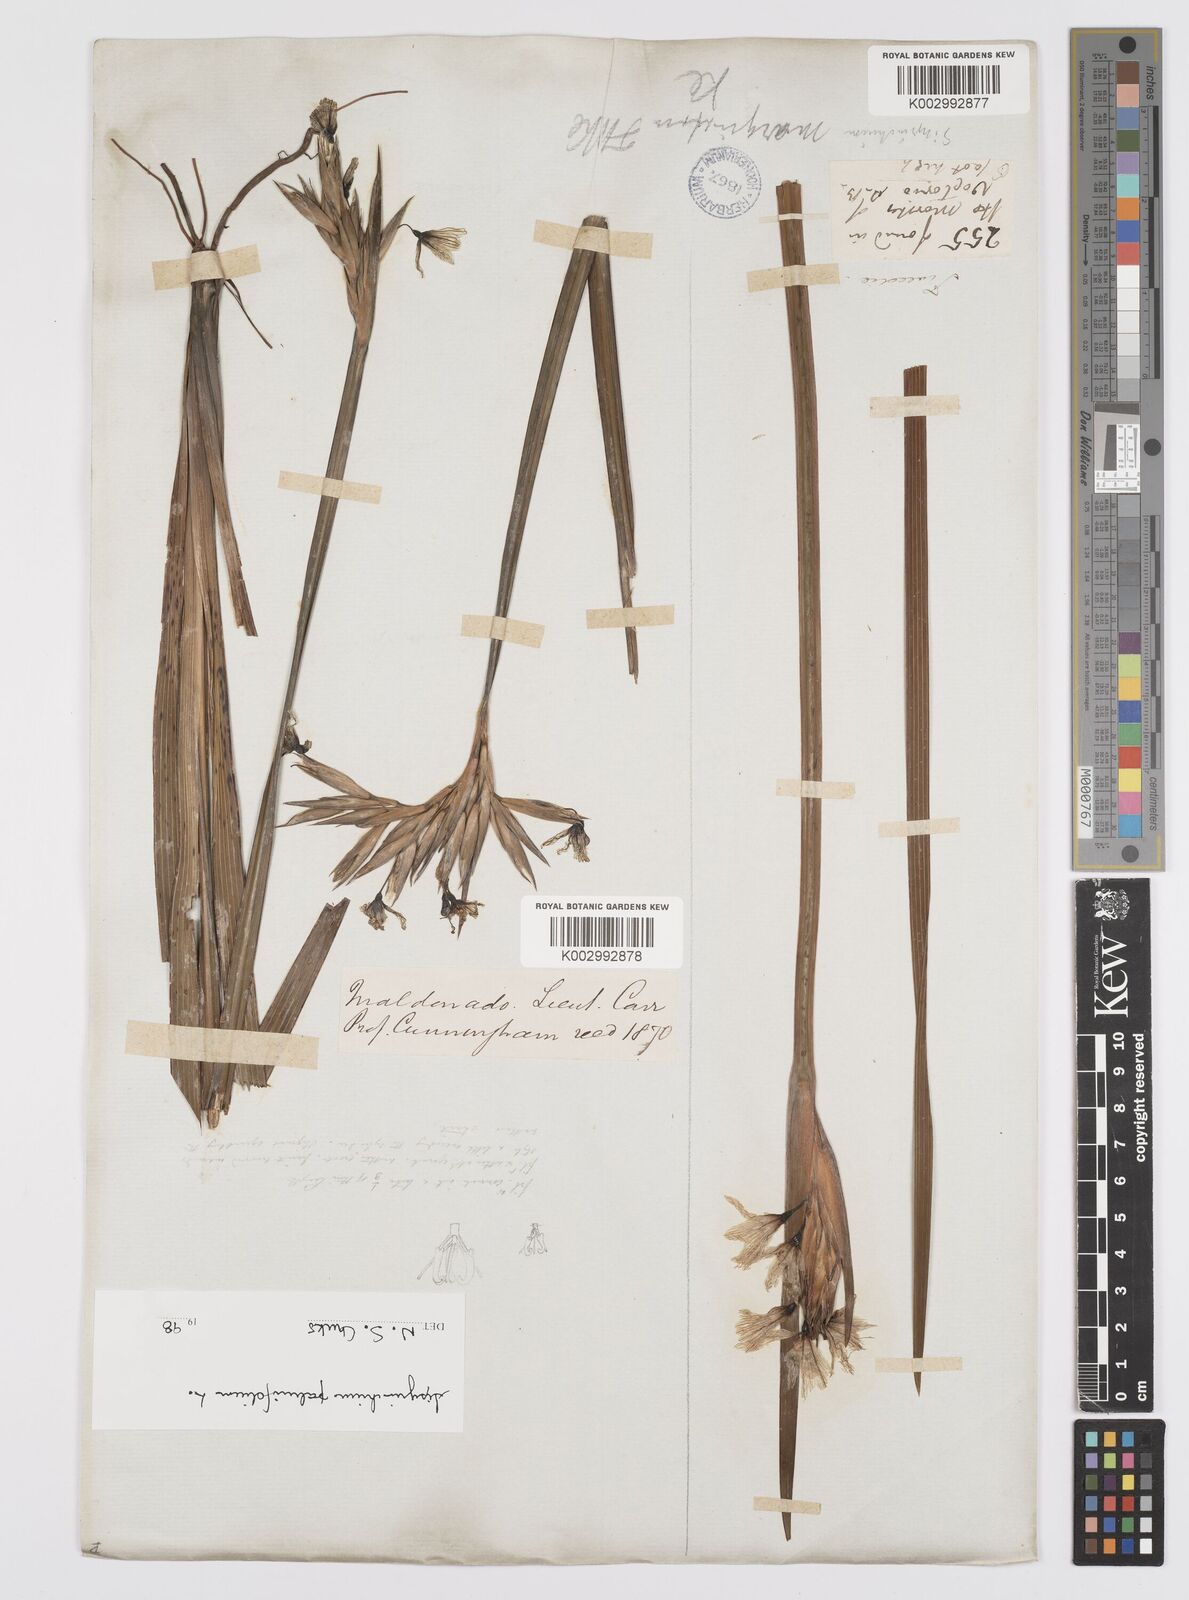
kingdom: Plantae
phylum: Tracheophyta
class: Liliopsida
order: Asparagales
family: Iridaceae
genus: Sisyrinchium
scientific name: Sisyrinchium palmifolium
